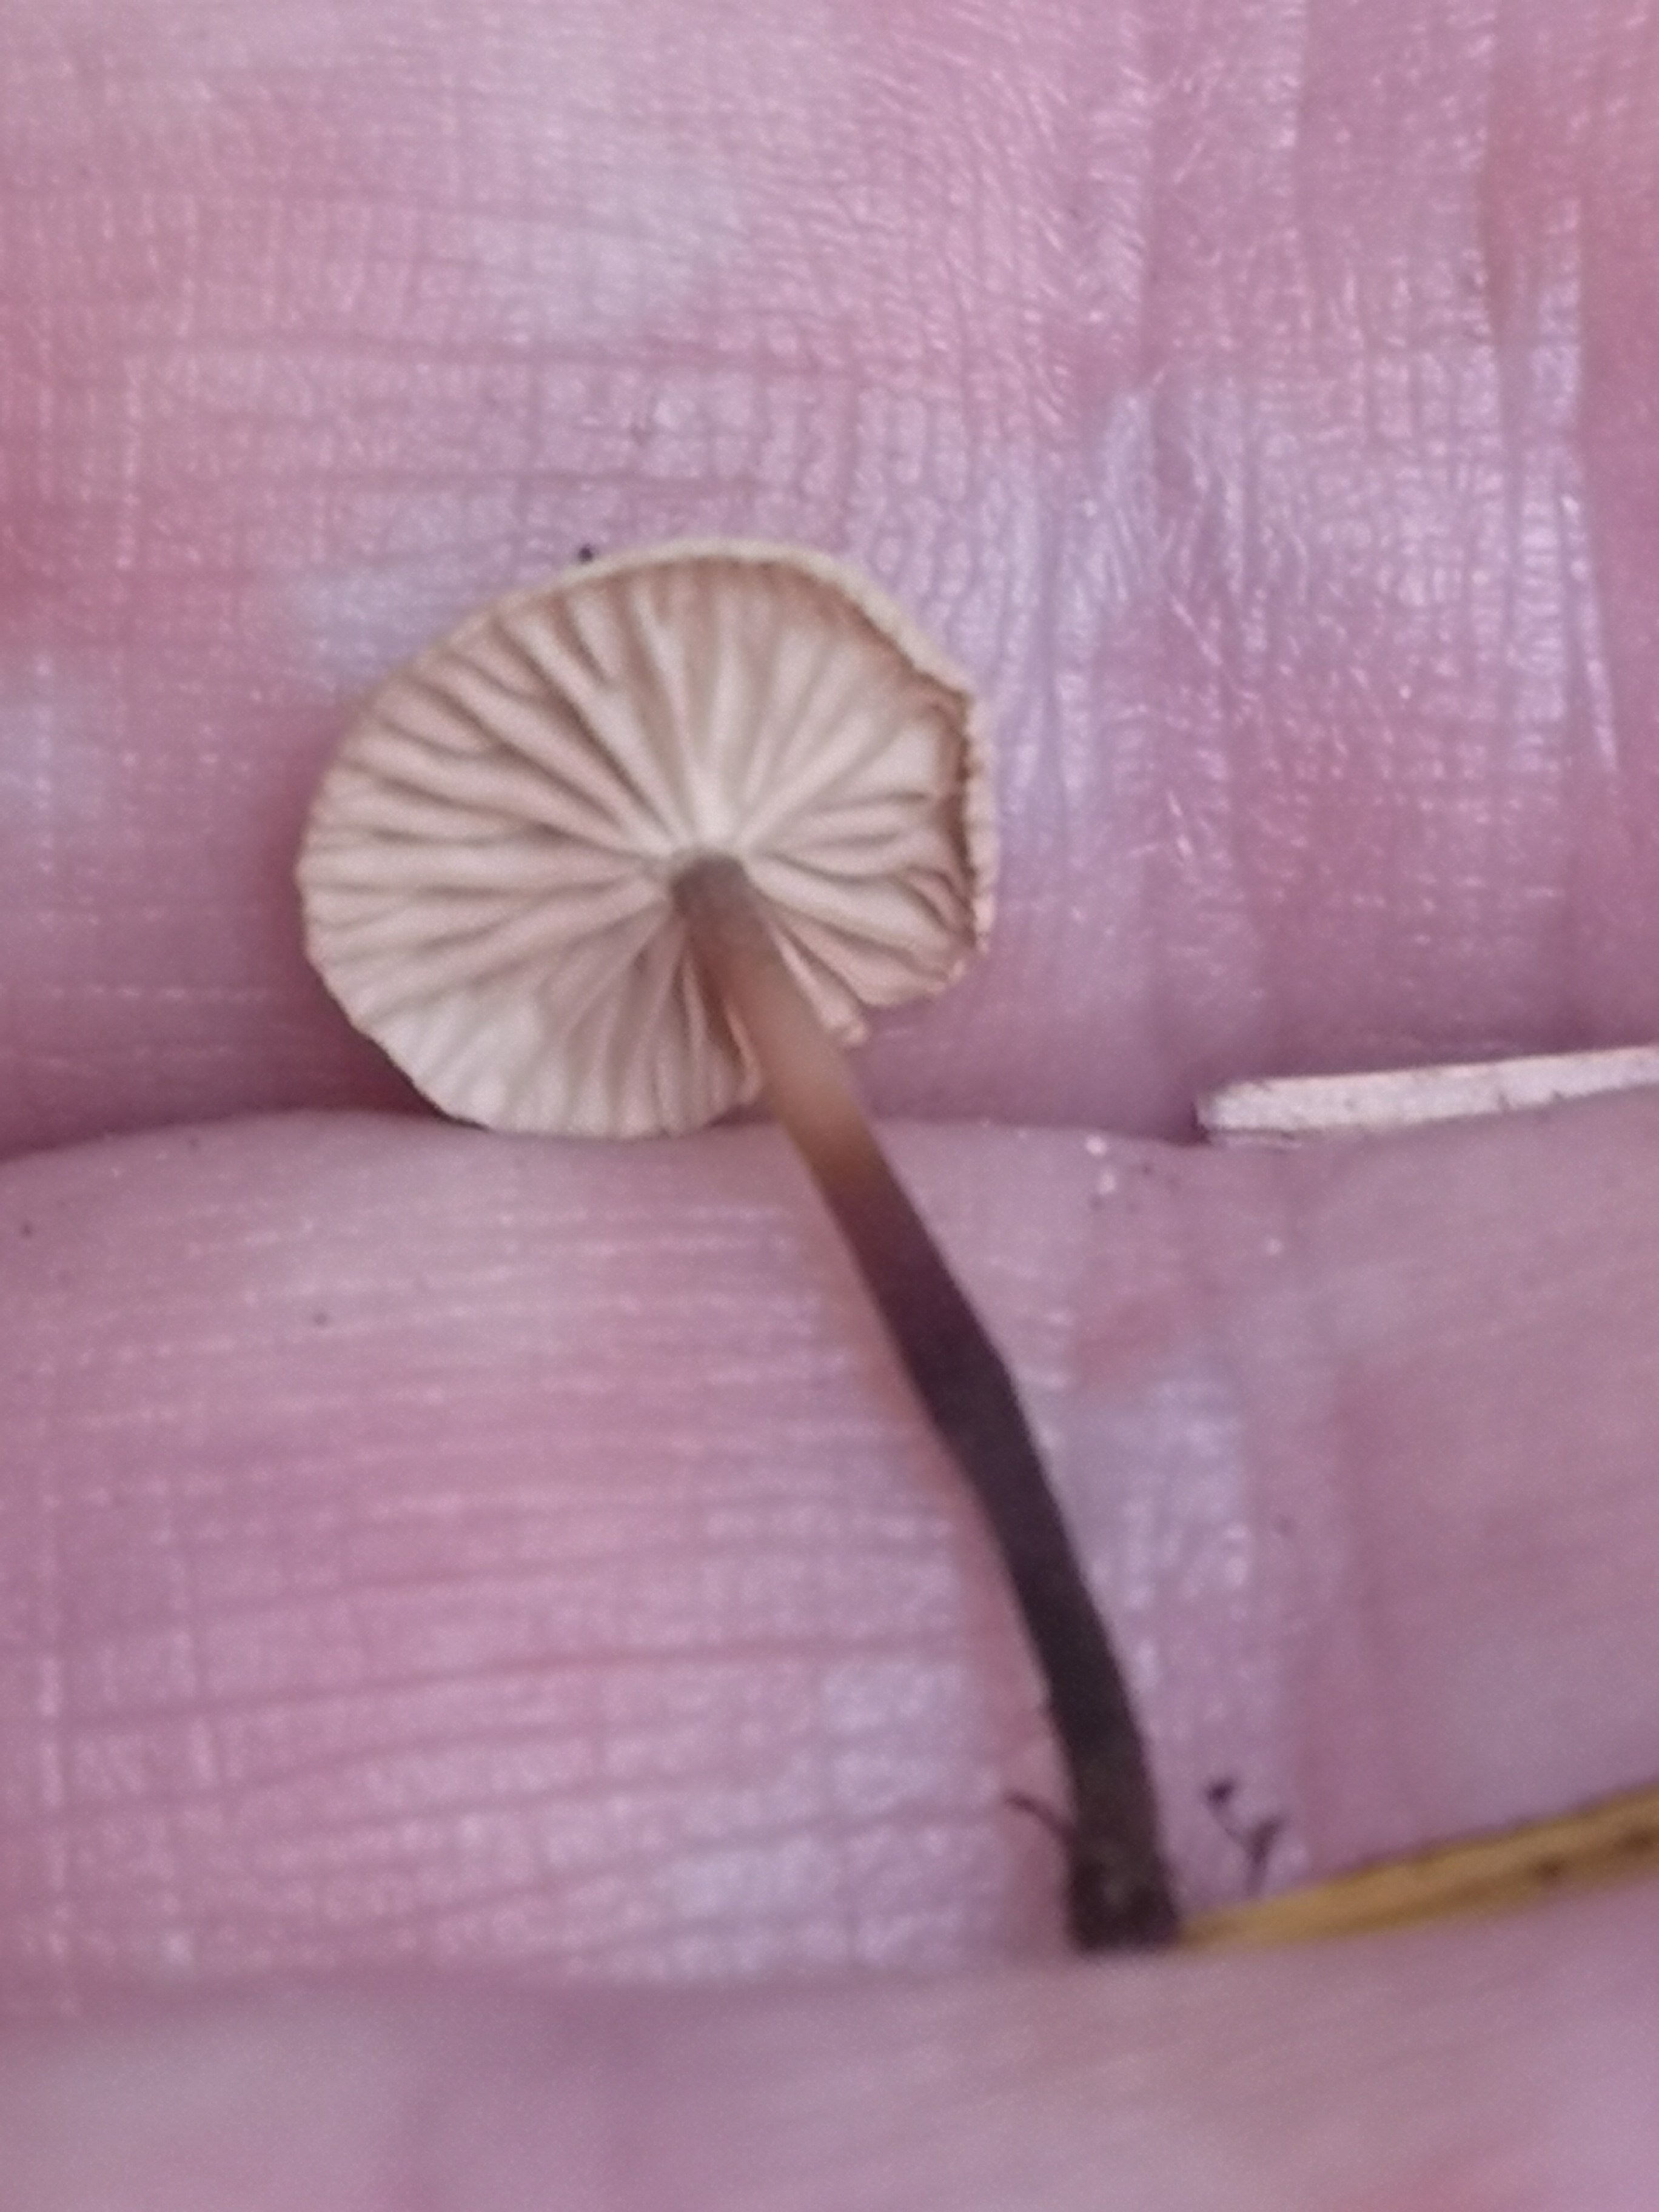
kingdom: Fungi
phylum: Basidiomycota
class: Agaricomycetes
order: Agaricales
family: Omphalotaceae
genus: Paragymnopus
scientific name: Paragymnopus perforans
